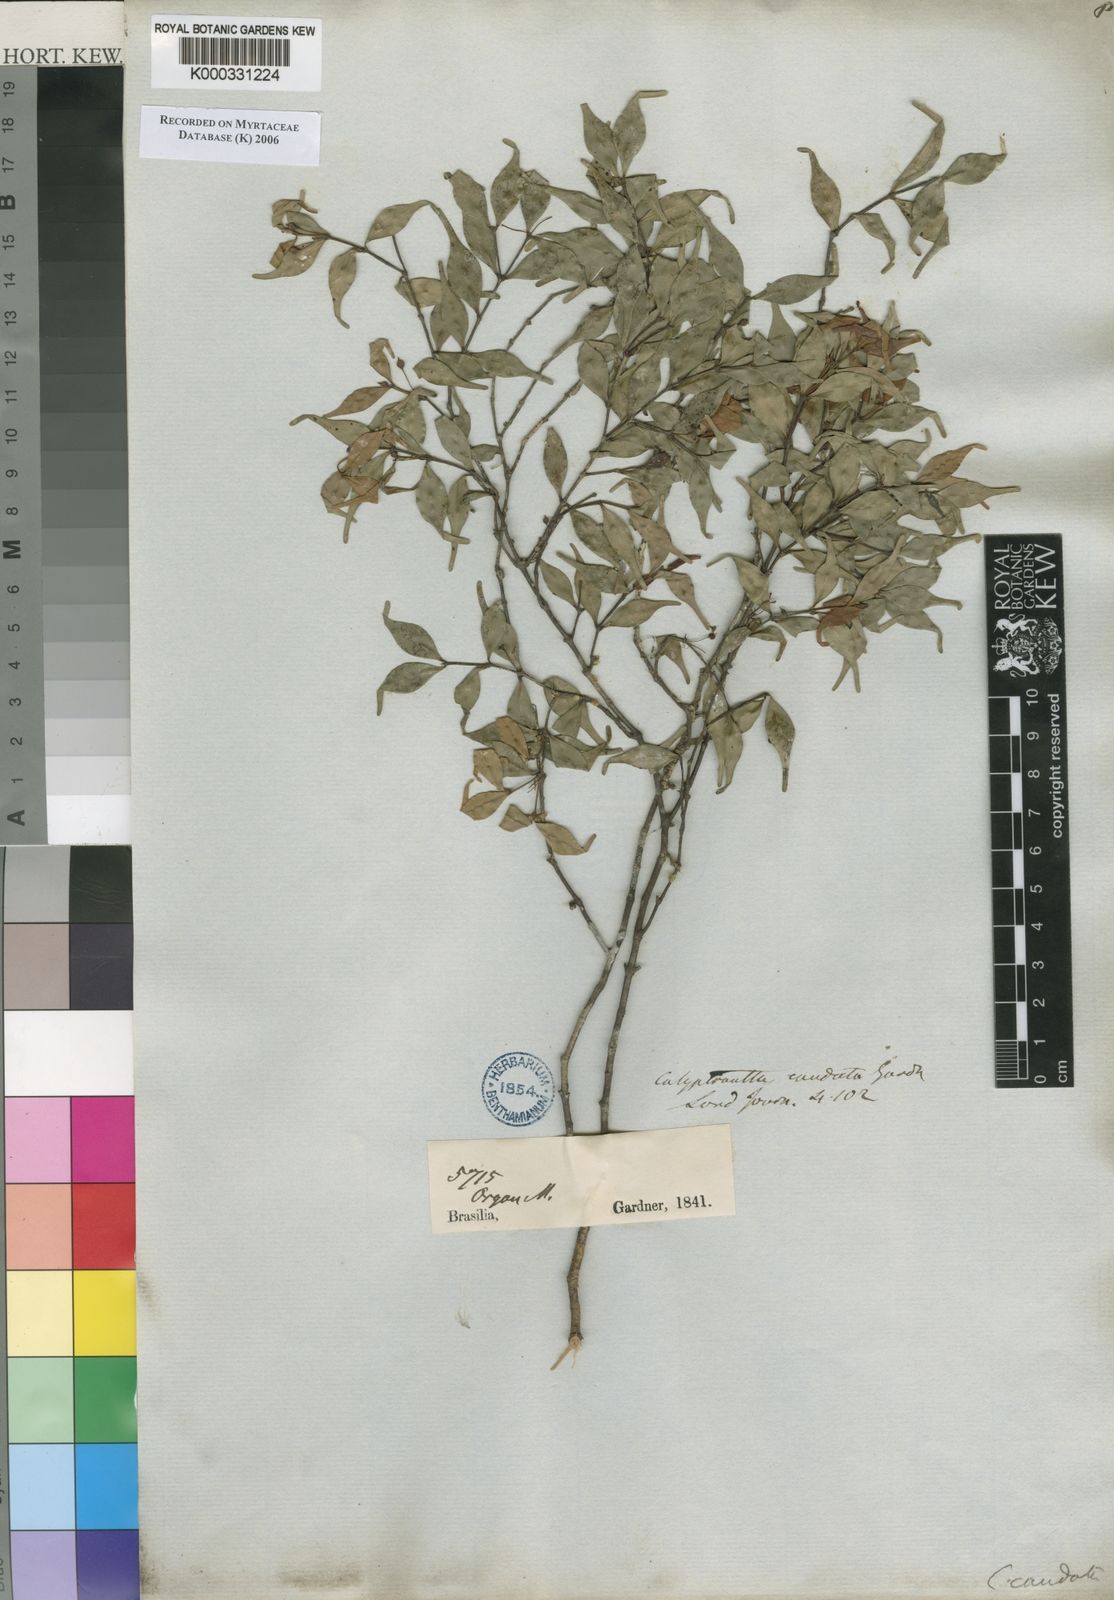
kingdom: Plantae
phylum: Tracheophyta
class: Magnoliopsida
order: Myrtales
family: Myrtaceae
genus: Myrcia
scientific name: Myrcia neocaudata
